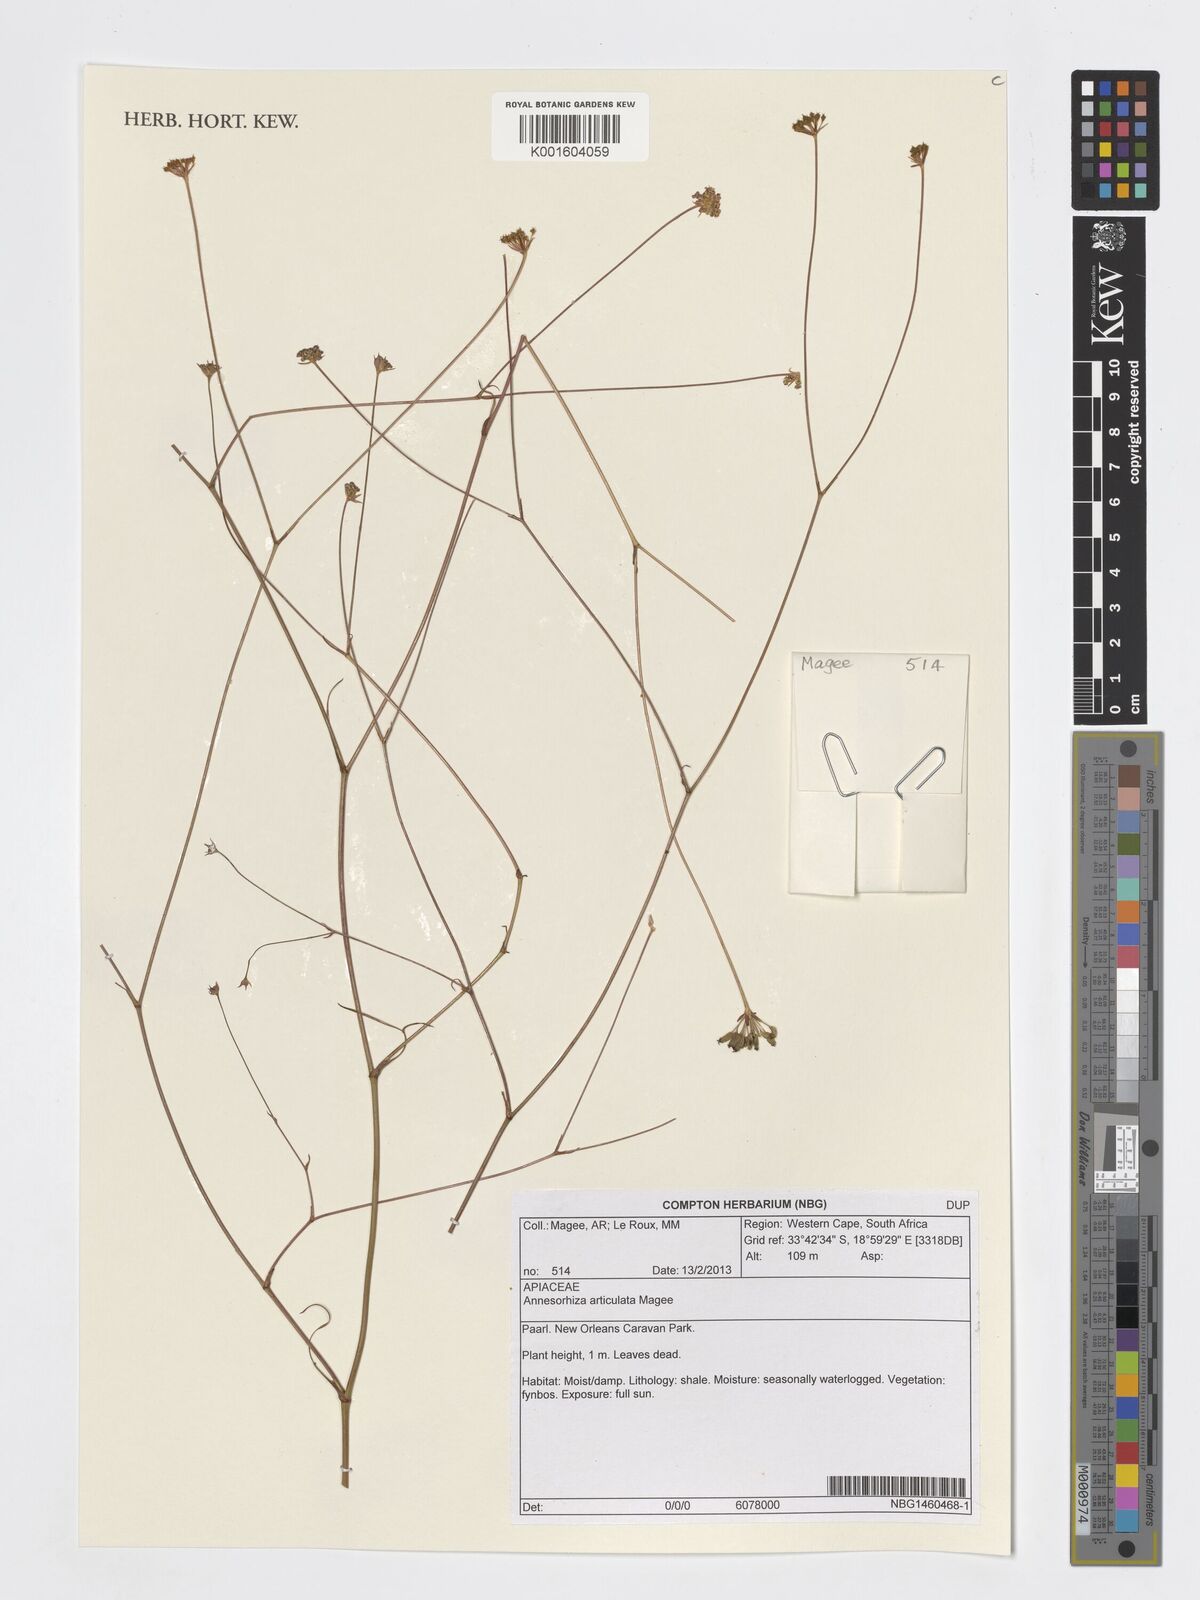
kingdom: Plantae
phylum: Tracheophyta
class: Magnoliopsida
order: Apiales
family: Apiaceae
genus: Annesorhiza
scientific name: Annesorhiza articulata
